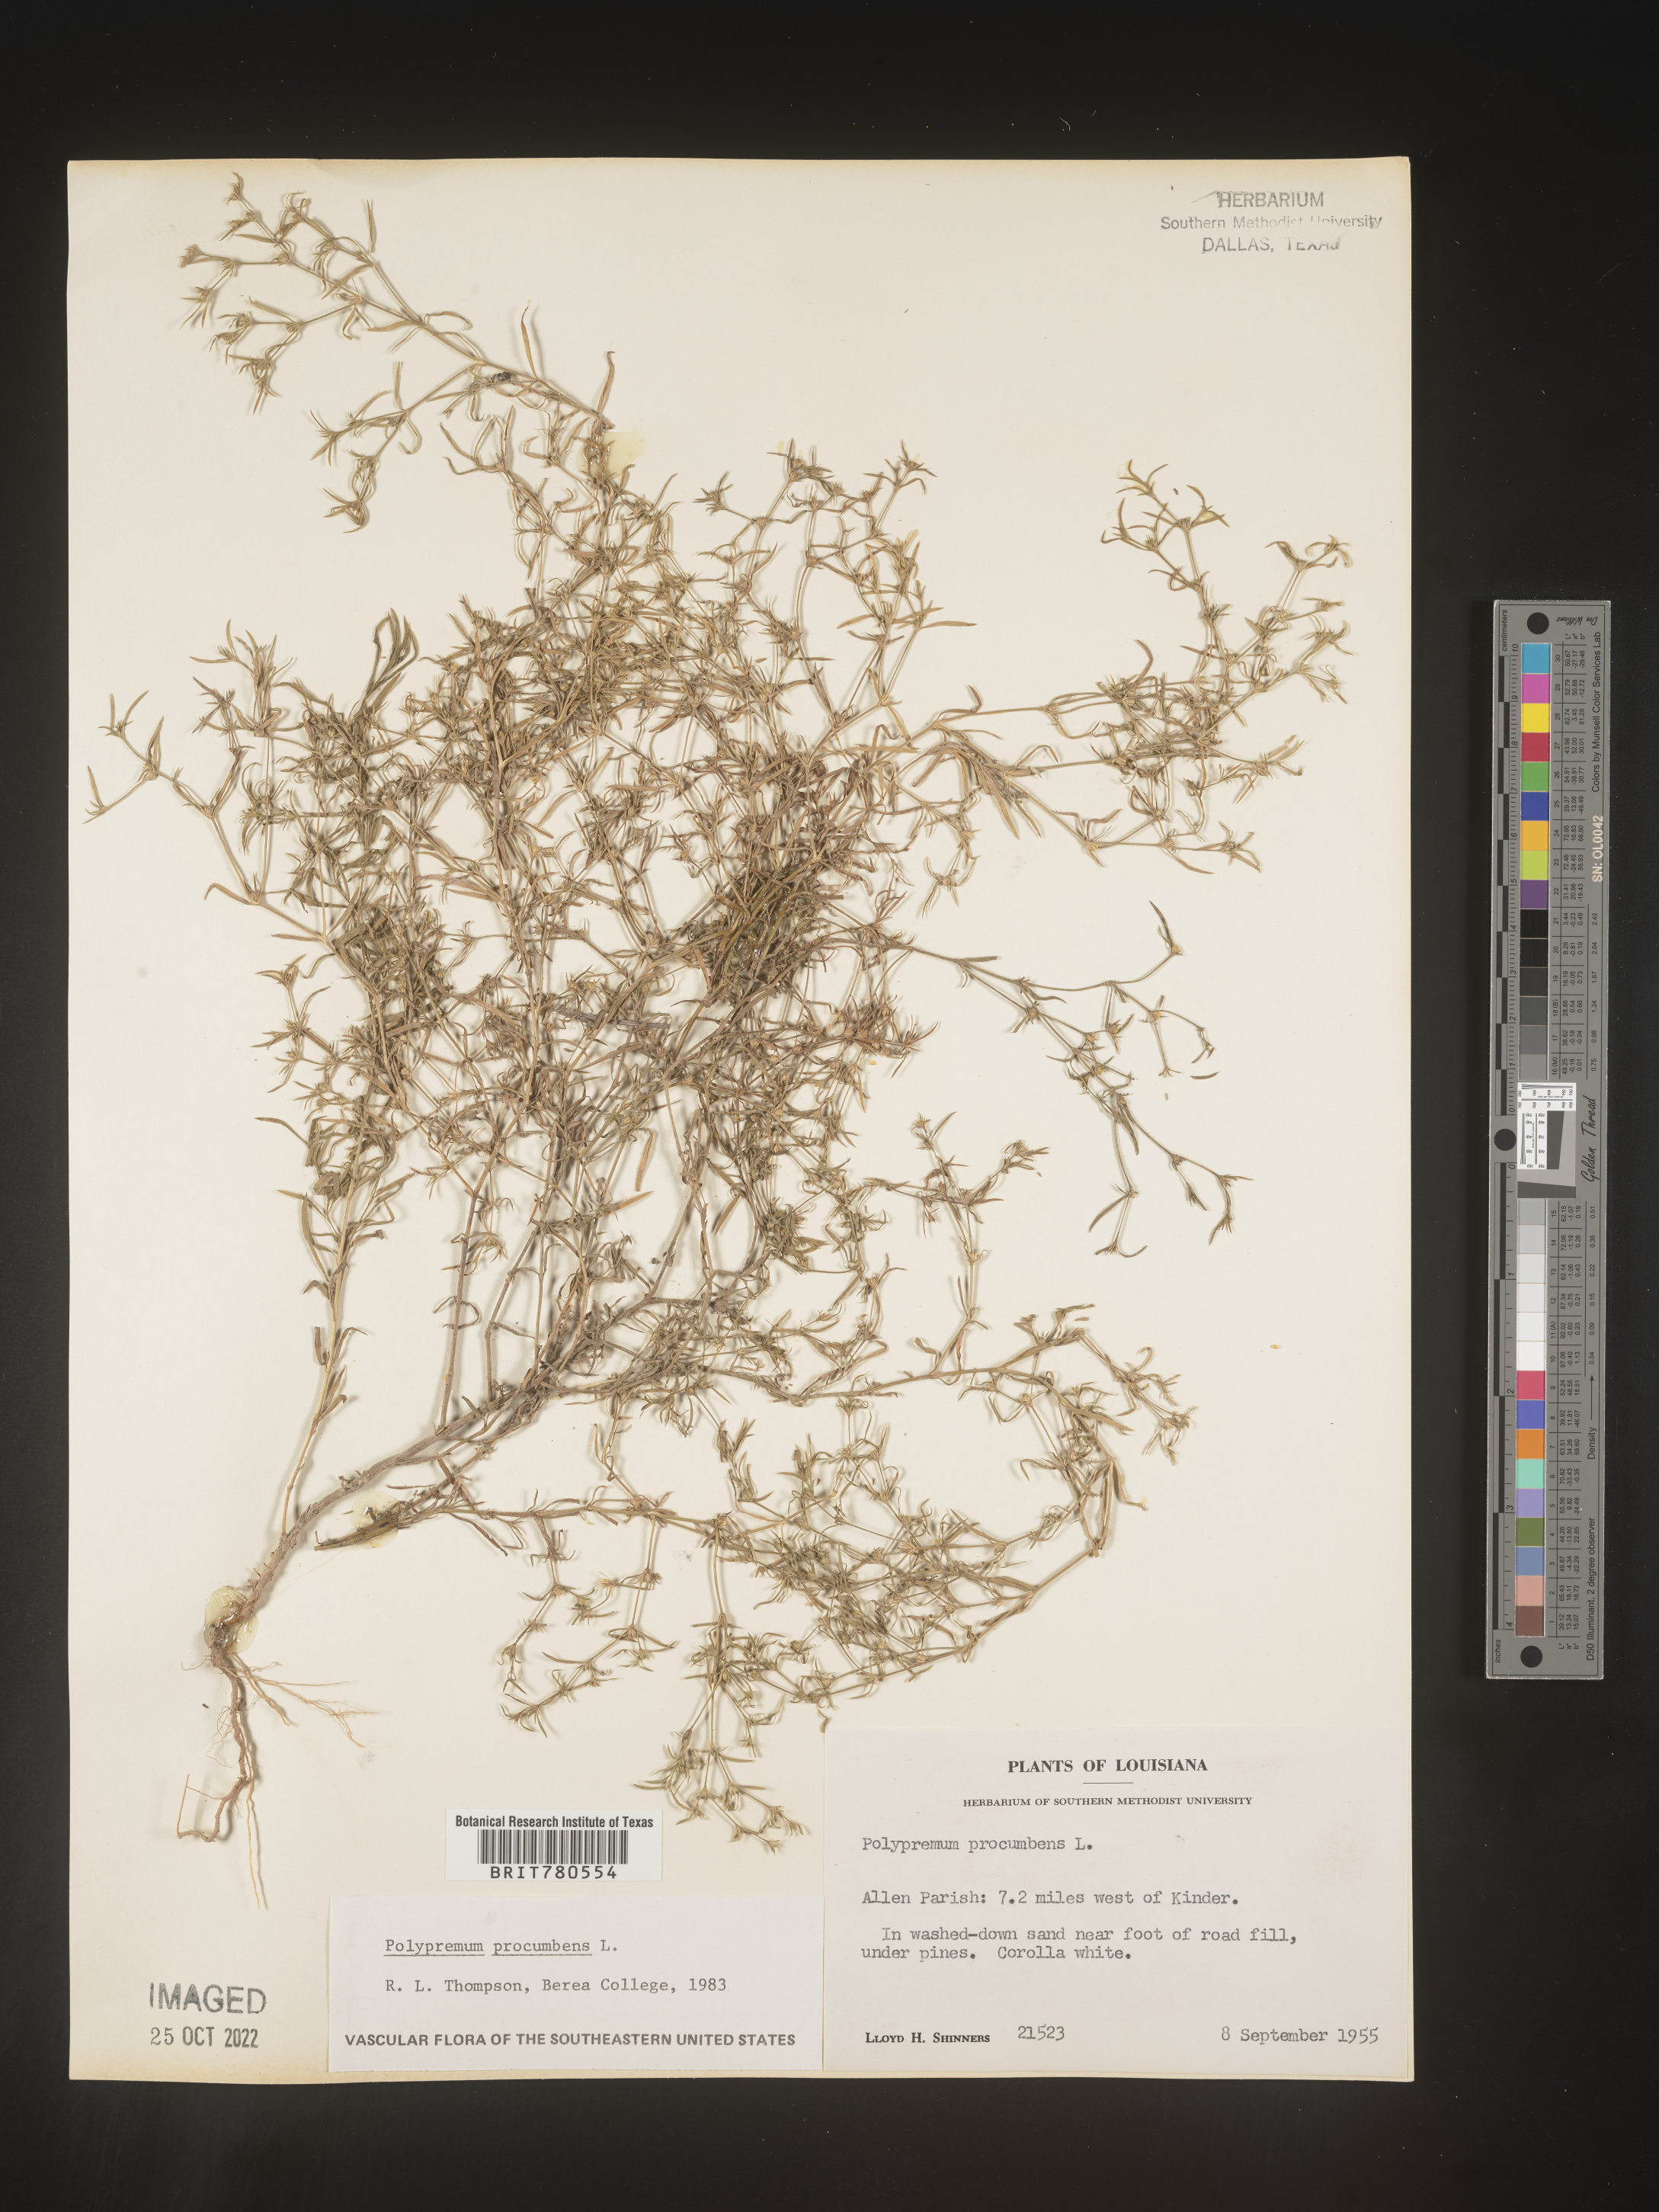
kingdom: Plantae
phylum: Tracheophyta
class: Magnoliopsida
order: Lamiales
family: Tetrachondraceae
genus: Polypremum
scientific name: Polypremum procumbens
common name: Juniper-leaf
